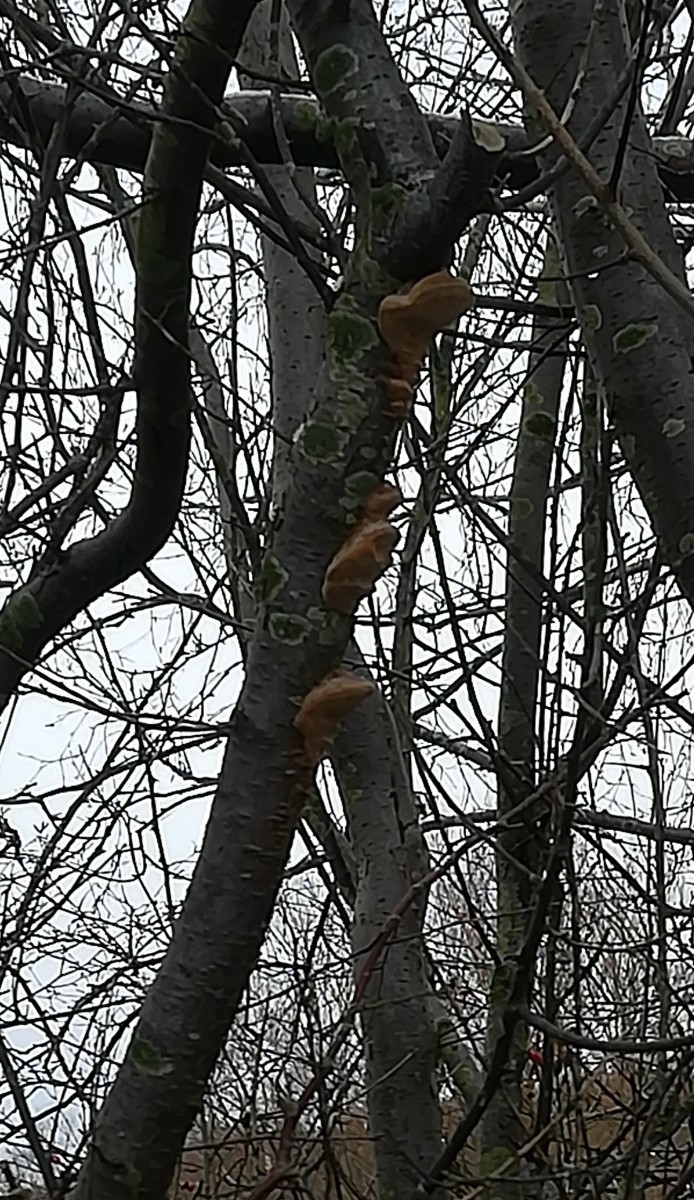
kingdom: Fungi
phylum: Basidiomycota
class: Agaricomycetes
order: Hymenochaetales
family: Hymenochaetaceae
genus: Phellinus
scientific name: Phellinus pomaceus
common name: blomme-ildporesvamp
